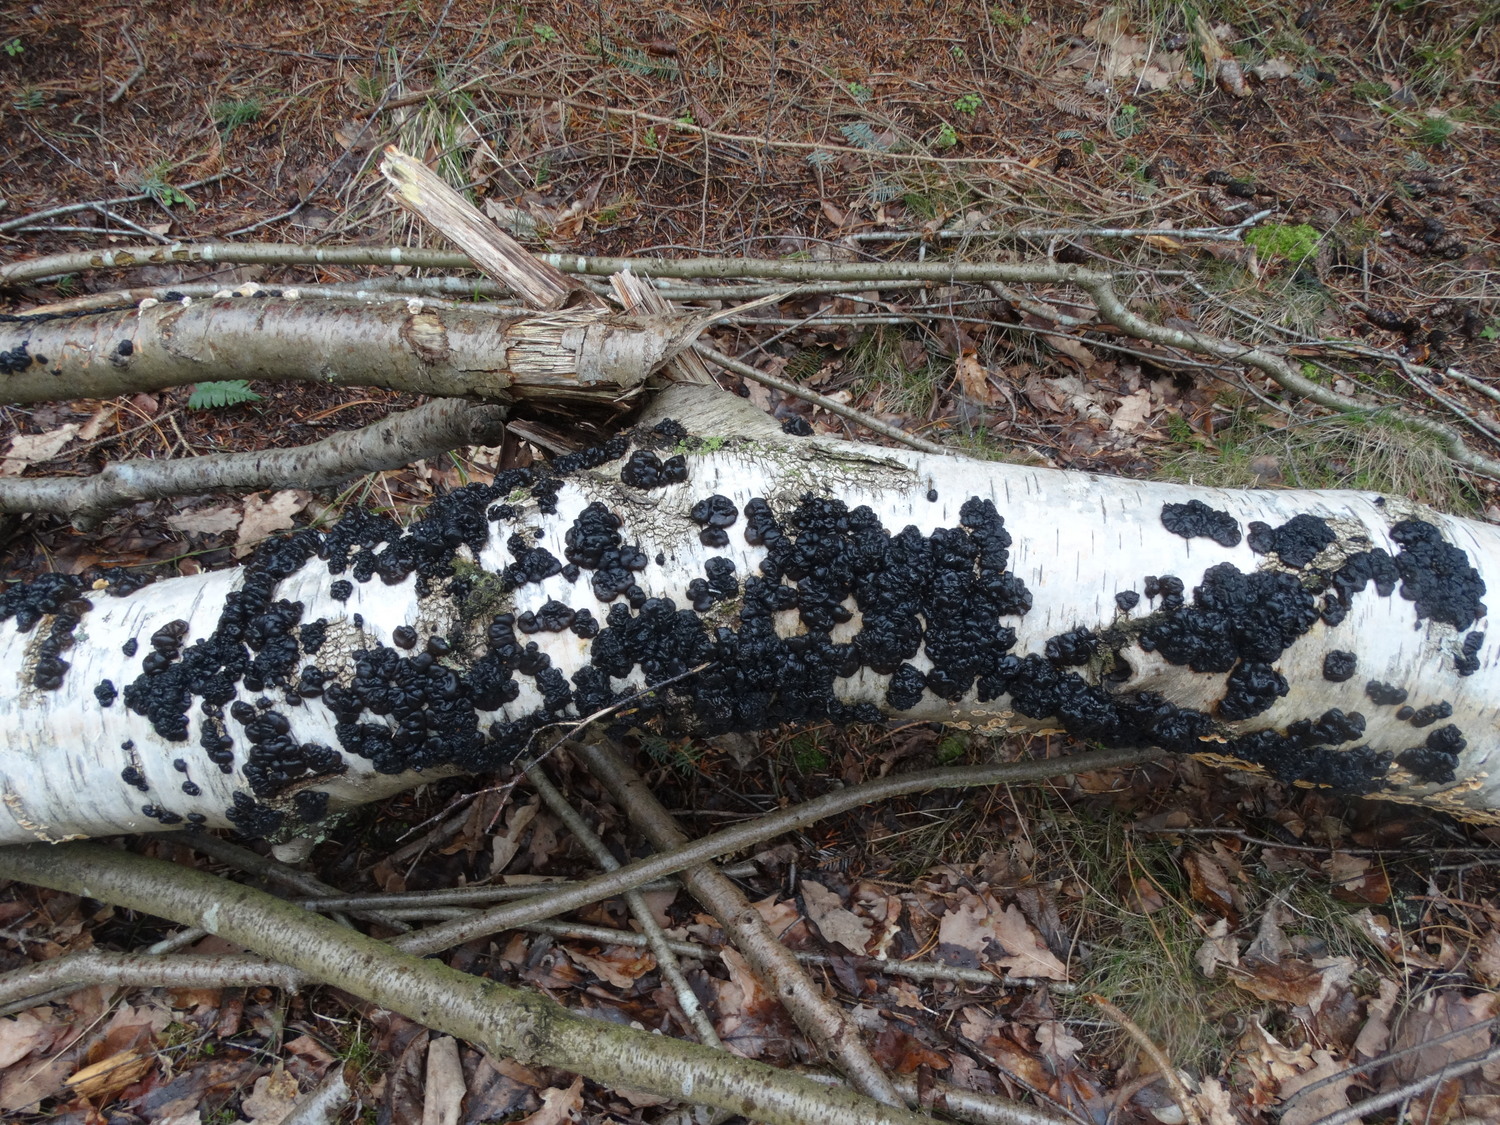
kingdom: Fungi
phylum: Basidiomycota
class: Agaricomycetes
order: Auriculariales
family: Auriculariaceae
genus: Exidia
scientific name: Exidia nigricans
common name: almindelig bævretop
